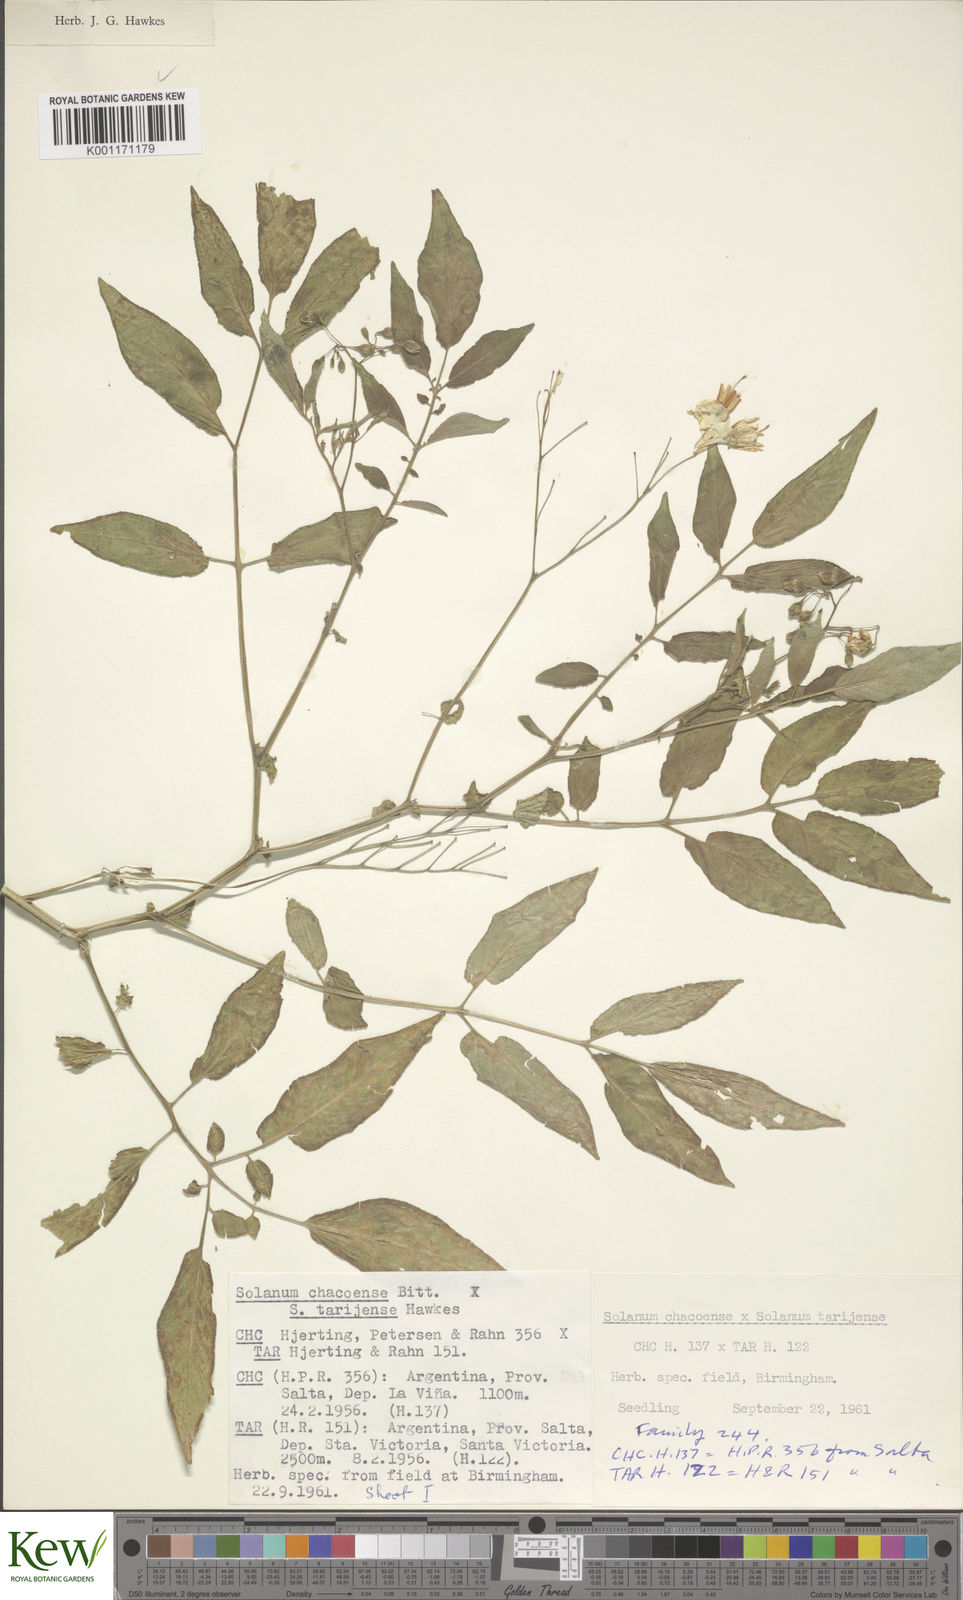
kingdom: Plantae
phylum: Tracheophyta
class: Magnoliopsida
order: Solanales
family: Solanaceae
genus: Solanum
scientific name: Solanum chacoense
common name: Chaco potato
